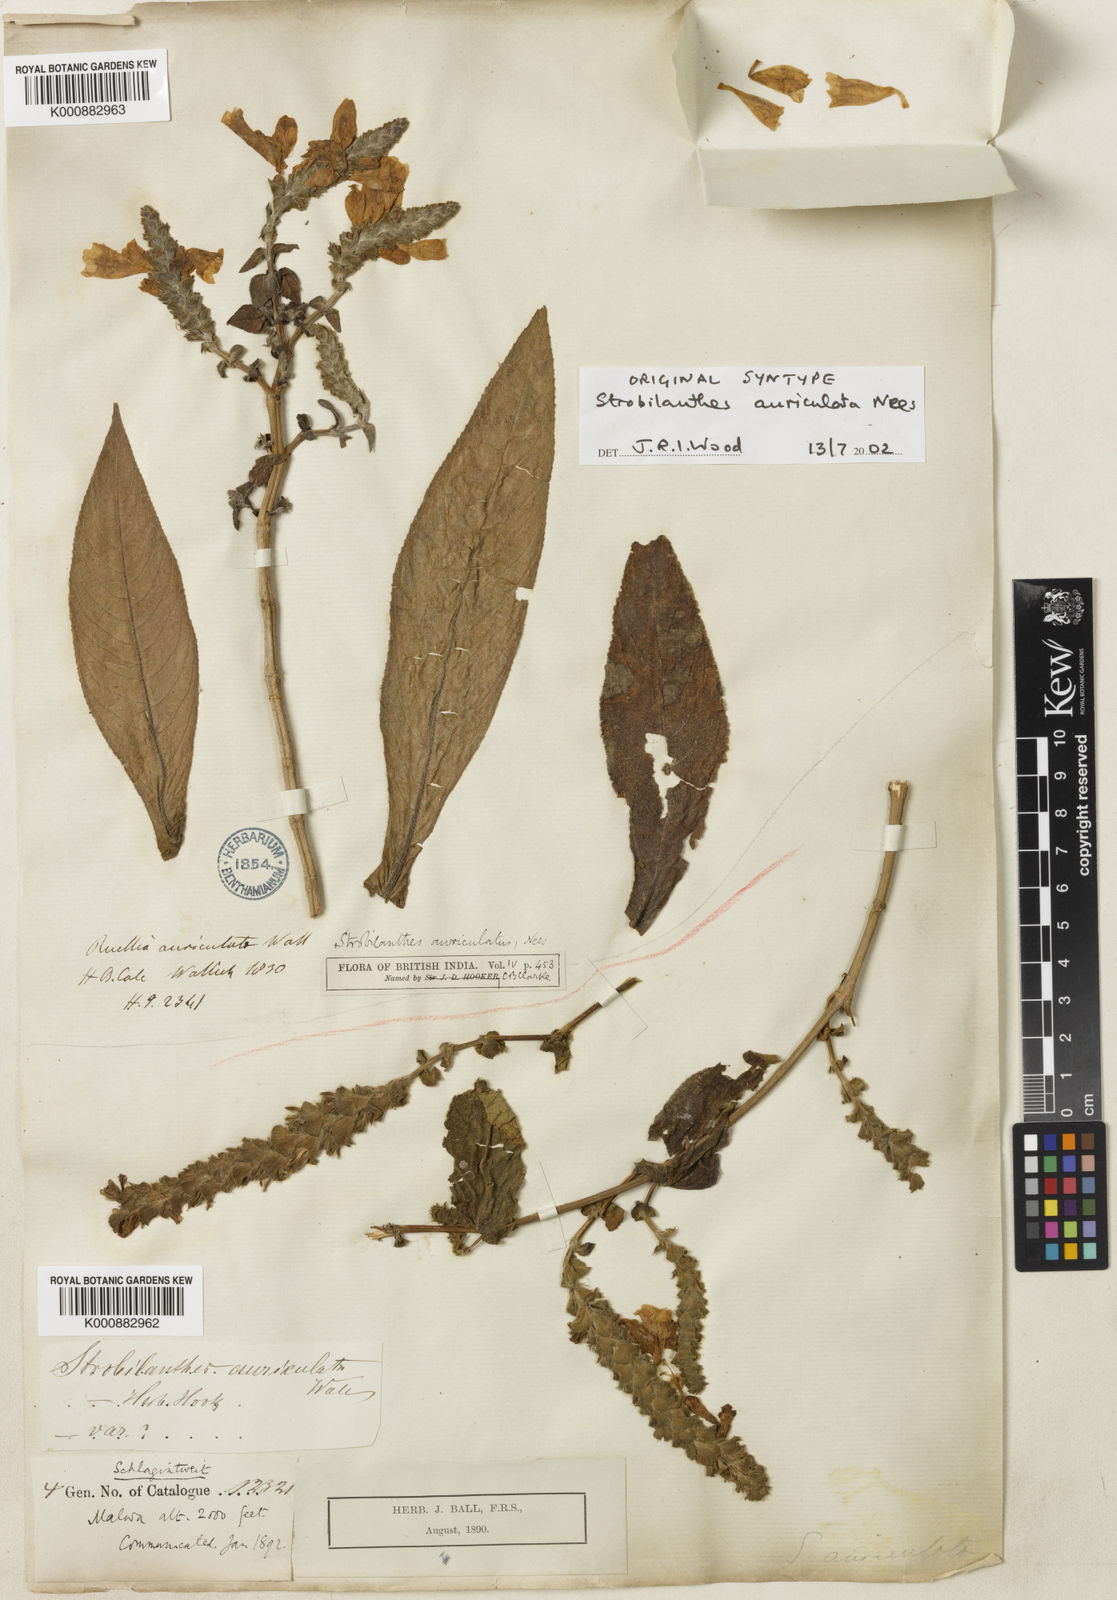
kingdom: Plantae
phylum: Tracheophyta
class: Magnoliopsida
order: Lamiales
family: Acanthaceae
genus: Strobilanthes
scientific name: Strobilanthes auriculata
